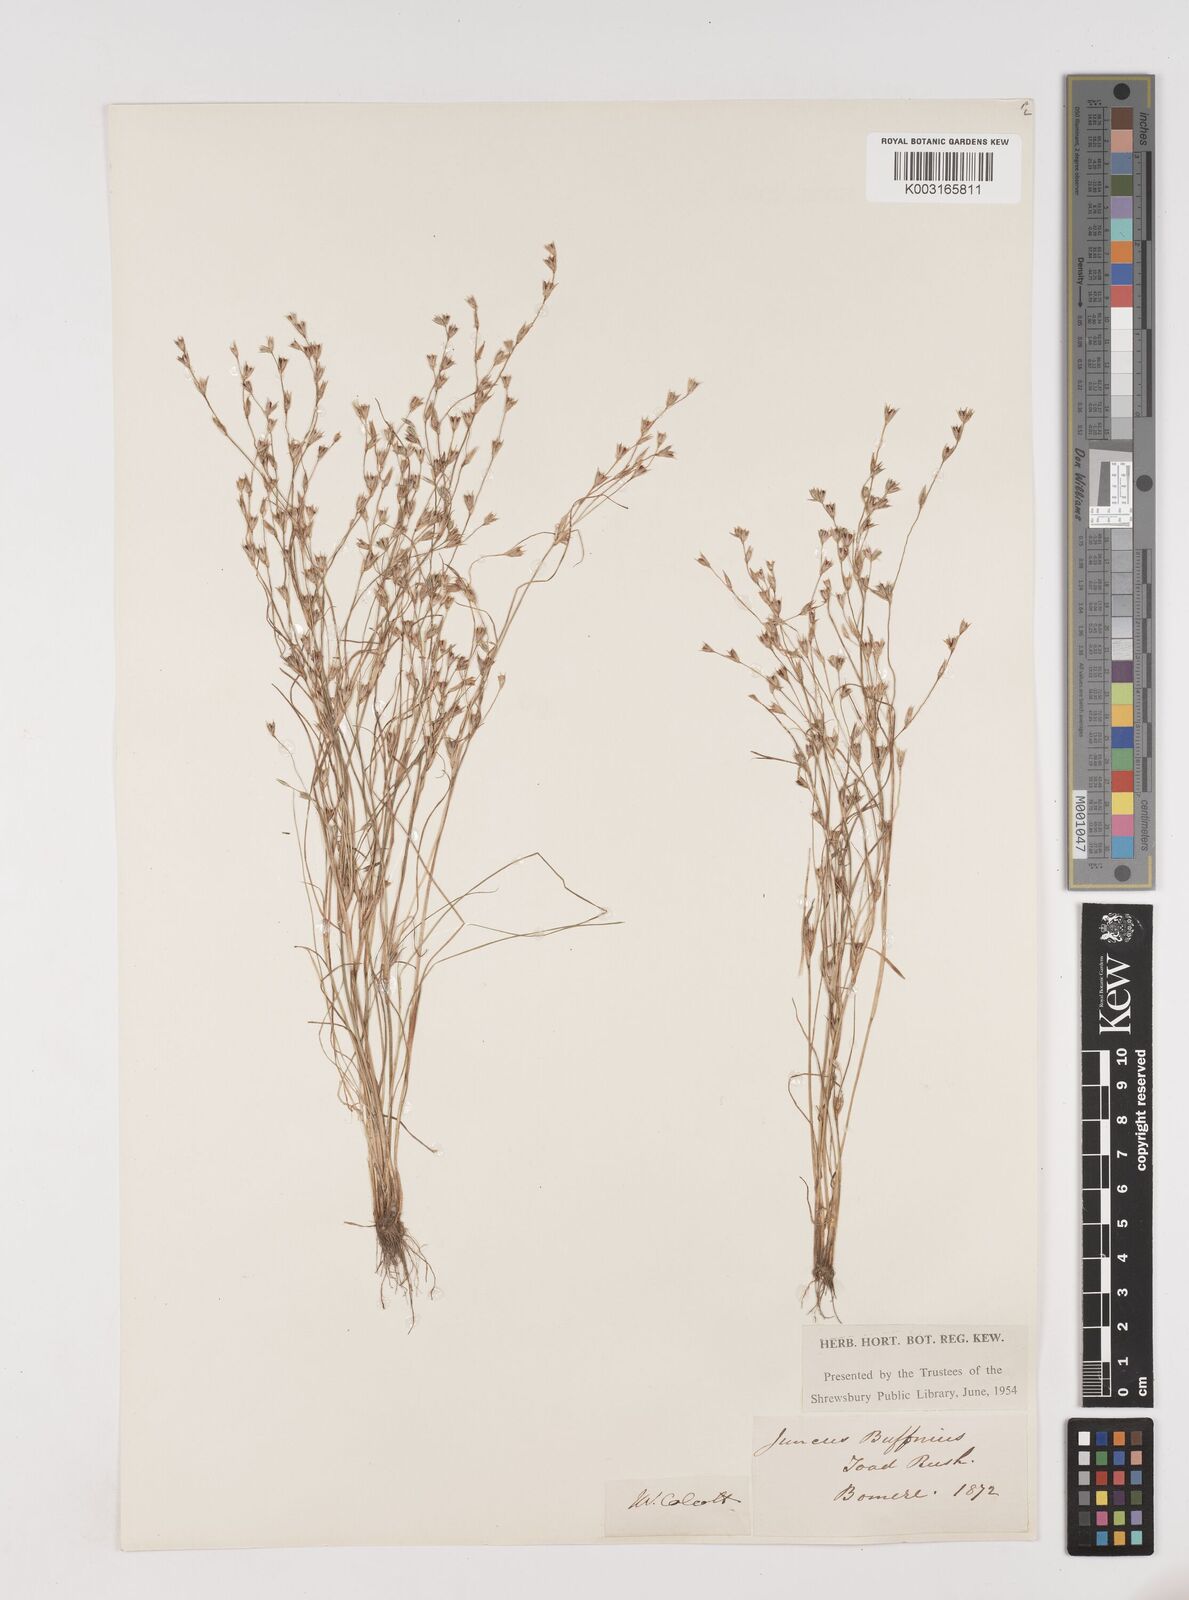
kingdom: Plantae
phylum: Tracheophyta
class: Liliopsida
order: Poales
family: Juncaceae
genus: Juncus
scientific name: Juncus bufonius
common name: Toad rush
